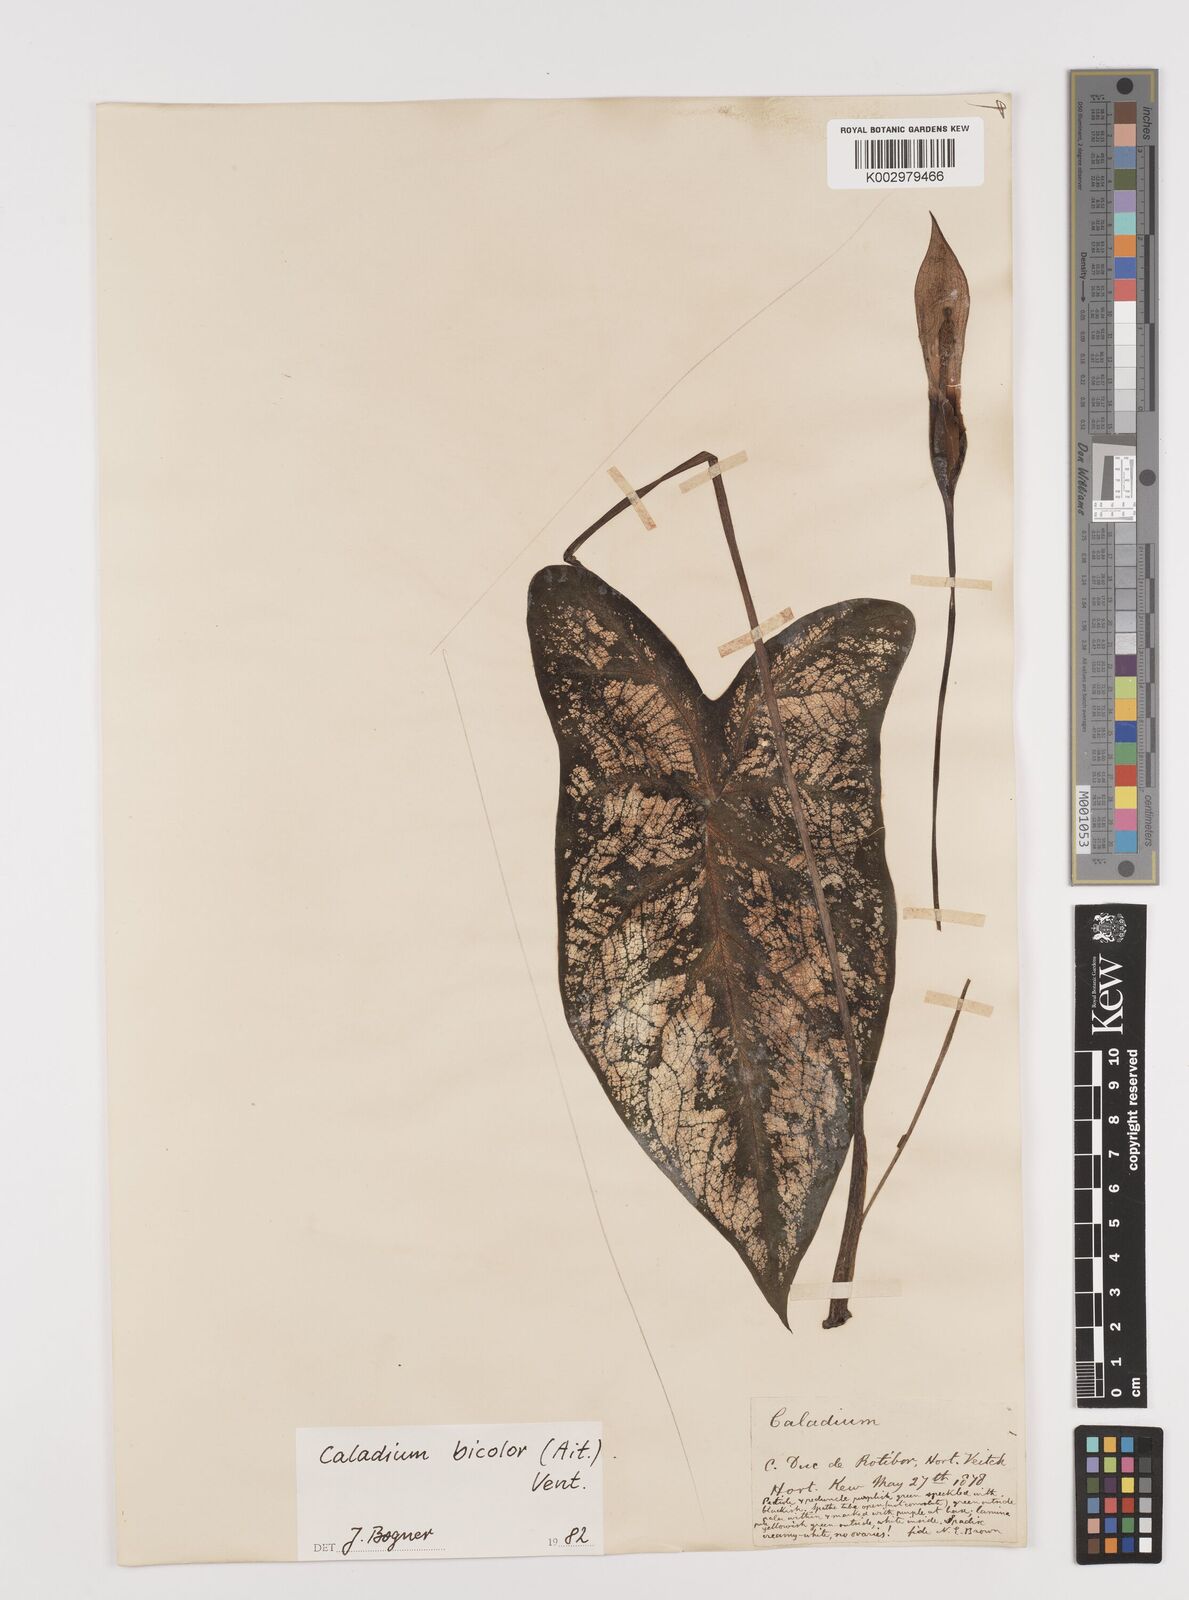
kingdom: Plantae
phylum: Tracheophyta
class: Liliopsida
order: Alismatales
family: Araceae
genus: Caladium
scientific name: Caladium bicolor
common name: Artist's pallet
